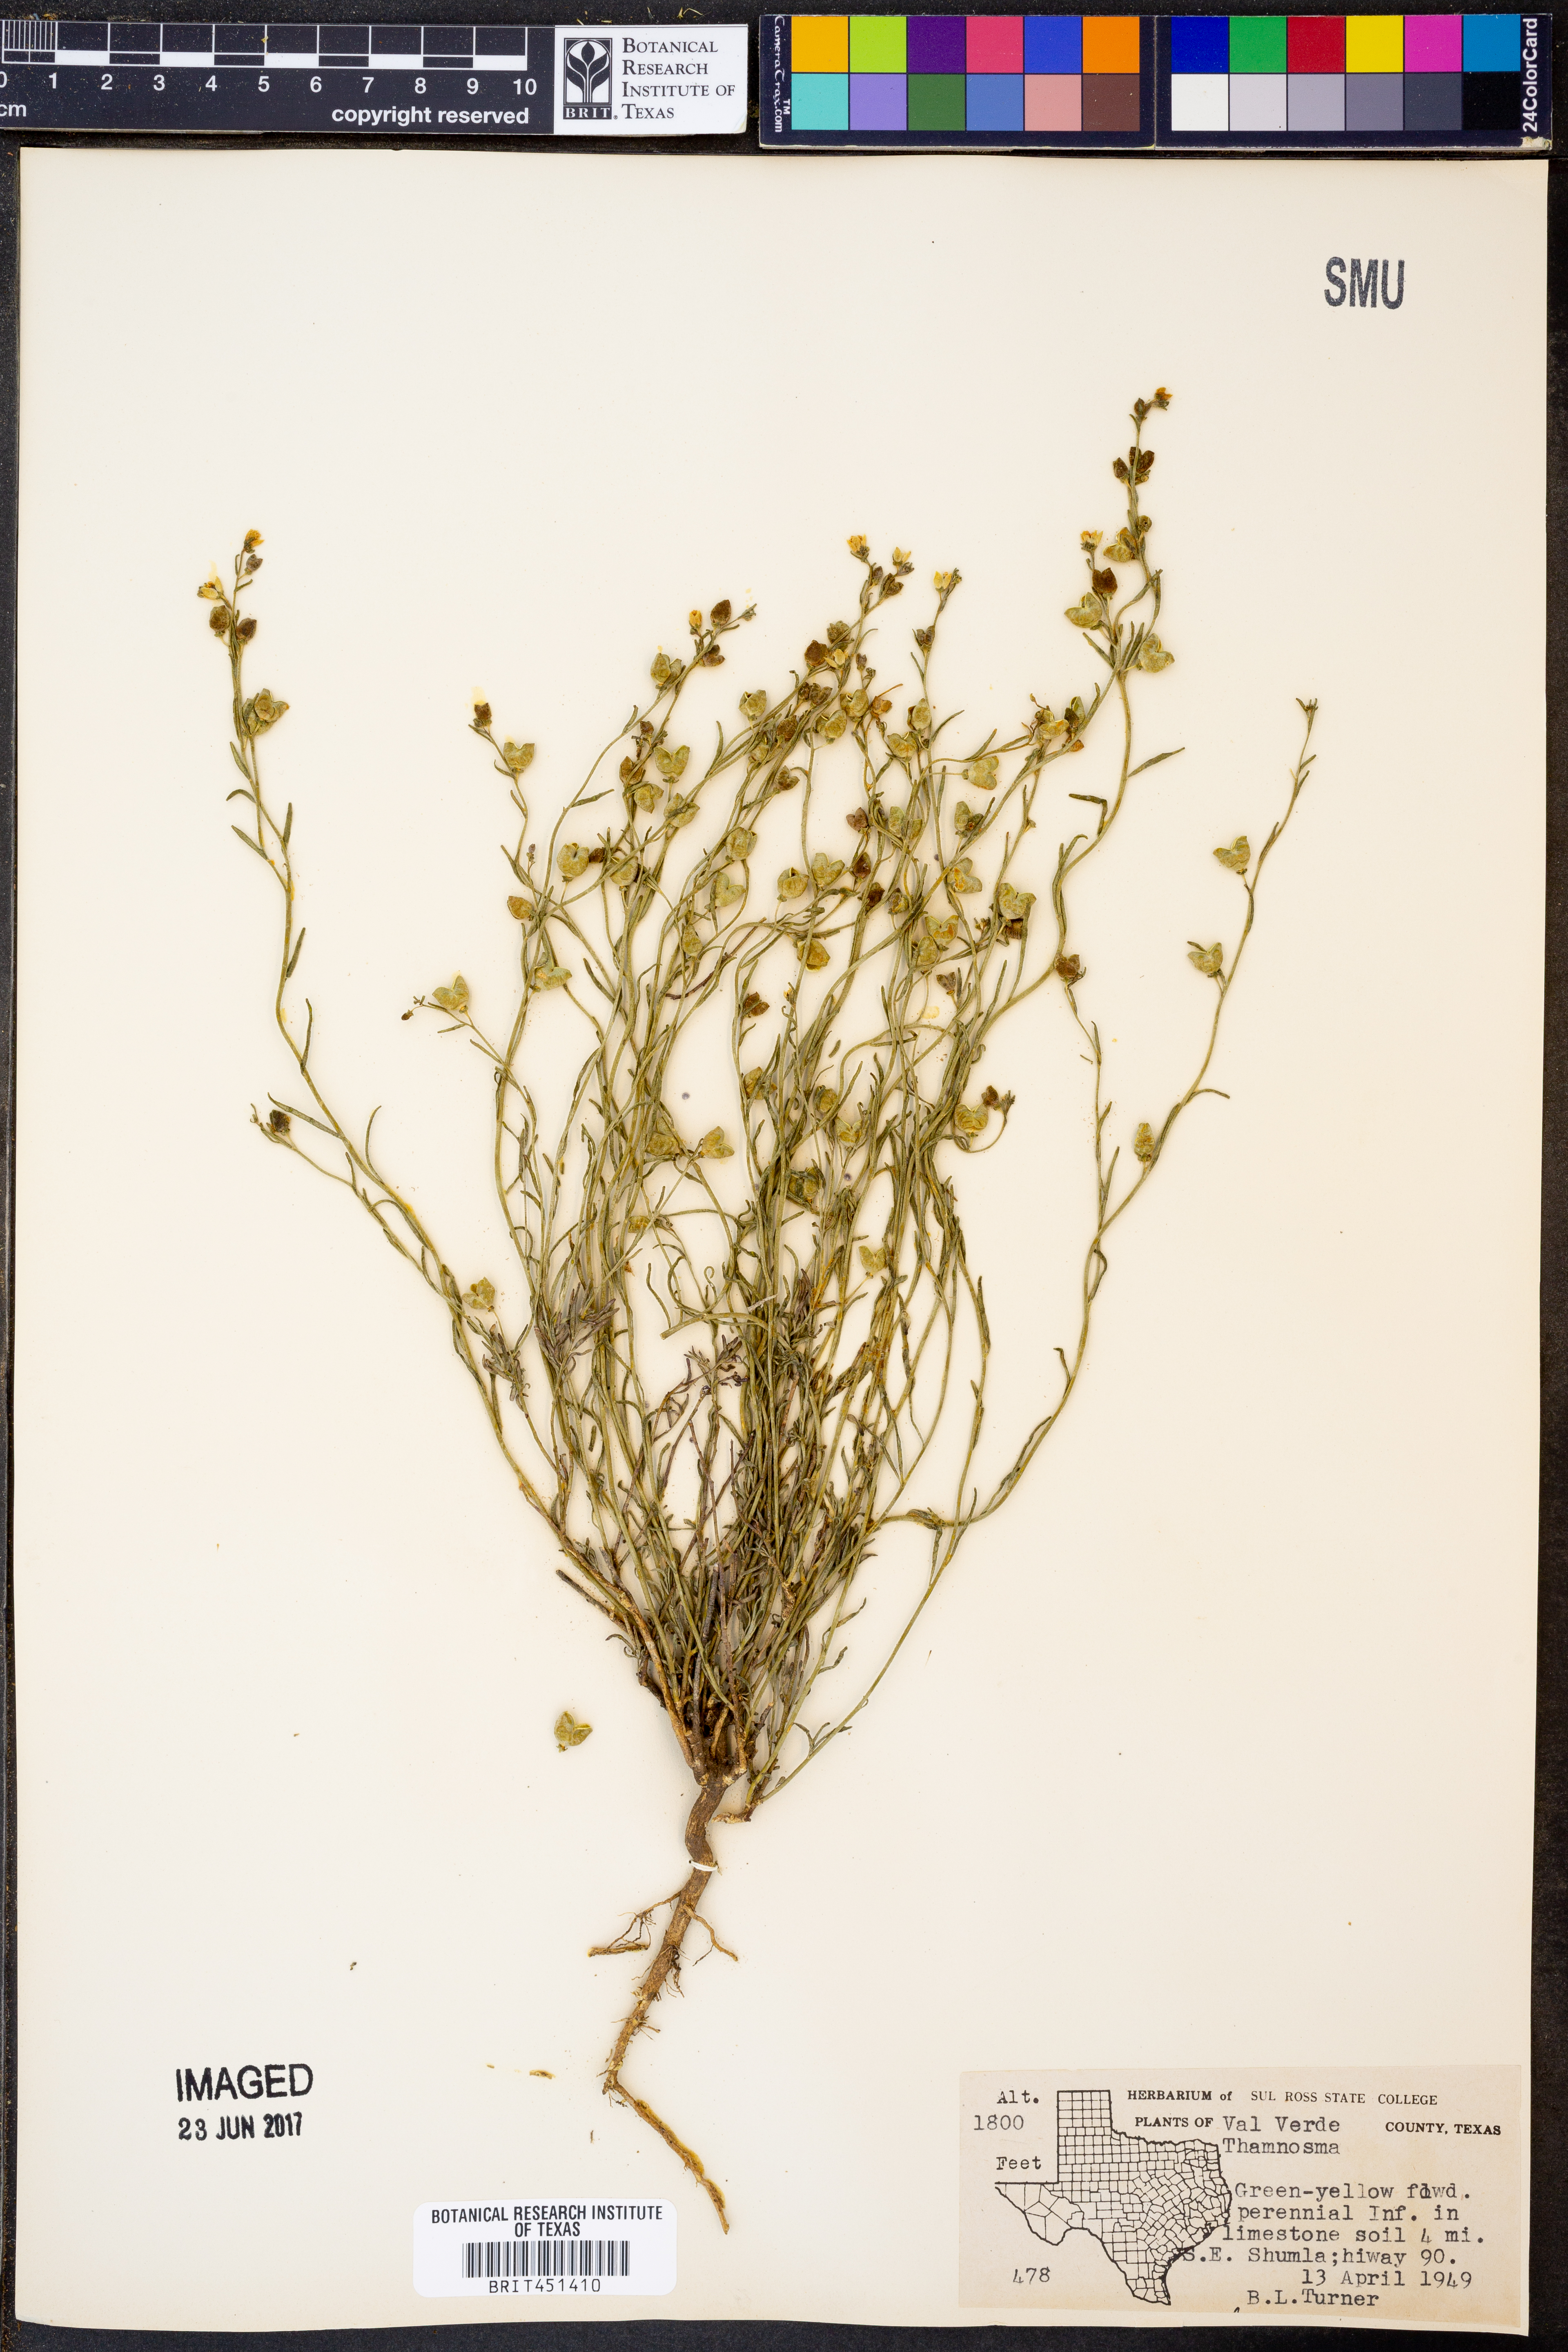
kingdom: Plantae
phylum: Tracheophyta
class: Magnoliopsida
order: Sapindales
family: Rutaceae
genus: Thamnosma
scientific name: Thamnosma
